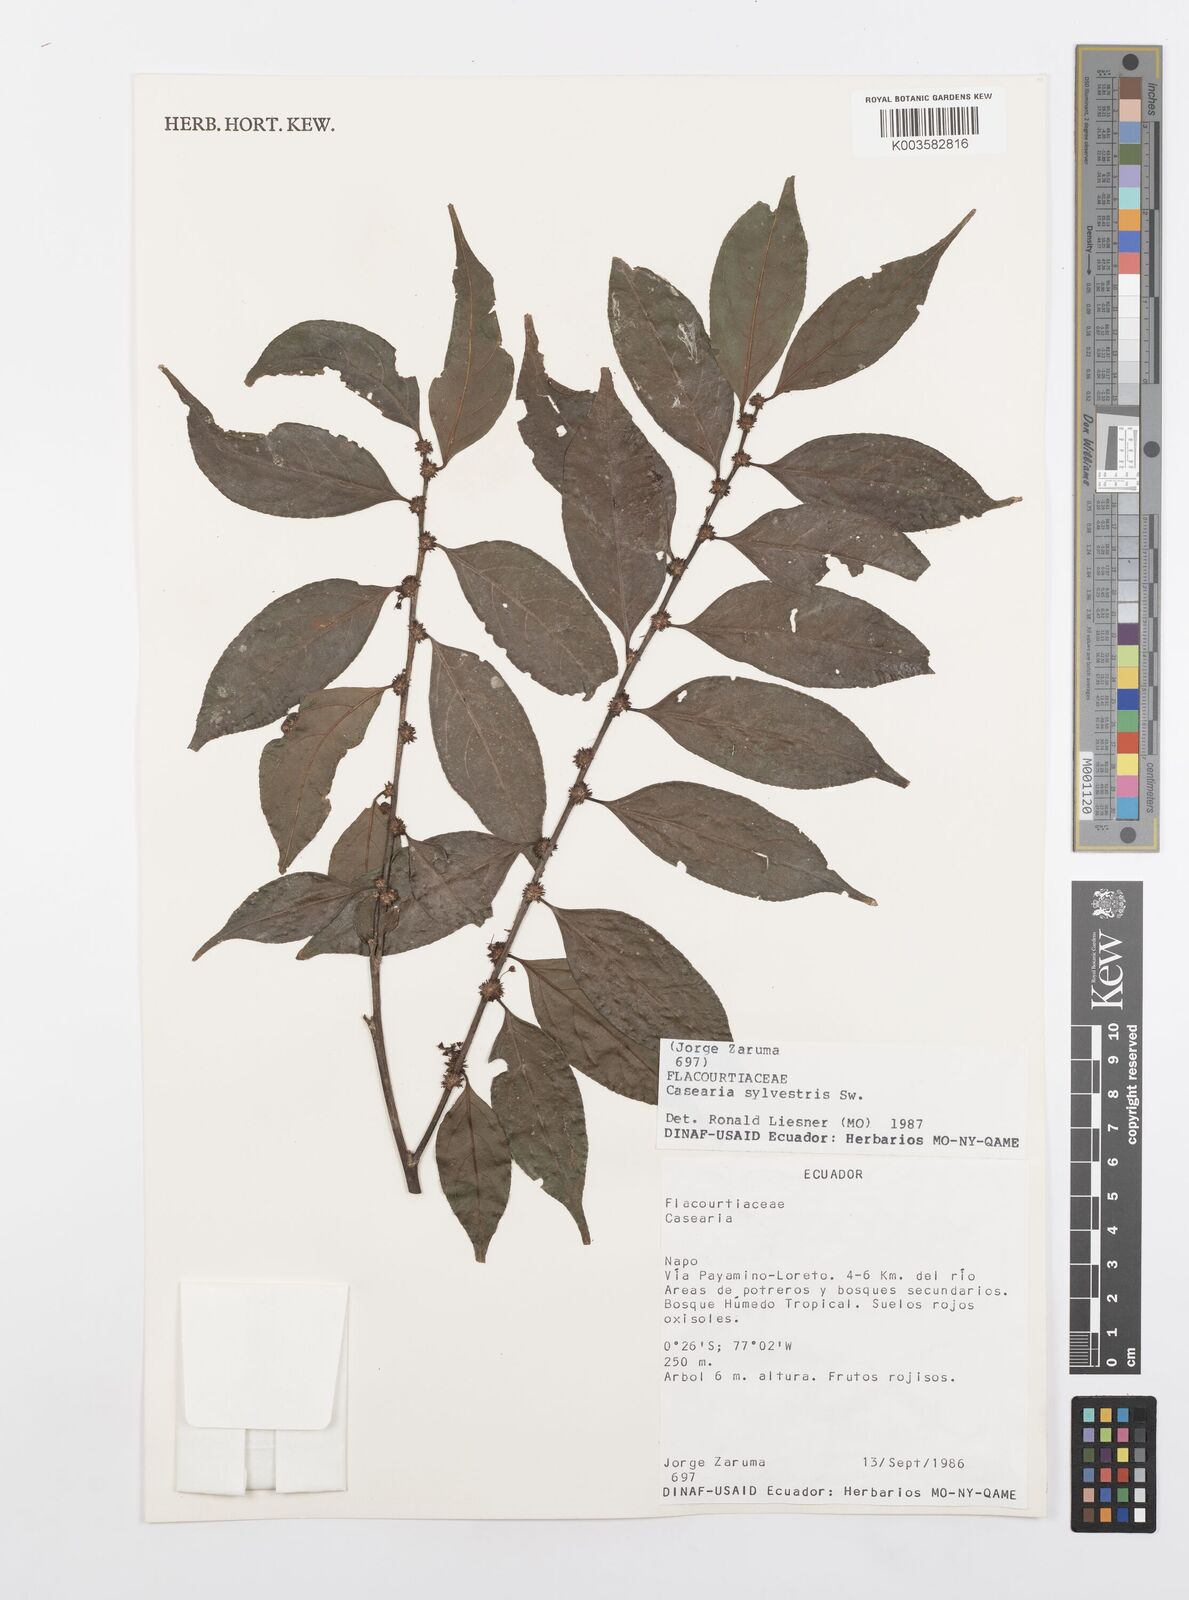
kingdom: Plantae
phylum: Tracheophyta
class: Magnoliopsida
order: Malpighiales
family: Salicaceae
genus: Casearia
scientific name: Casearia sylvestris
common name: Wild sage
